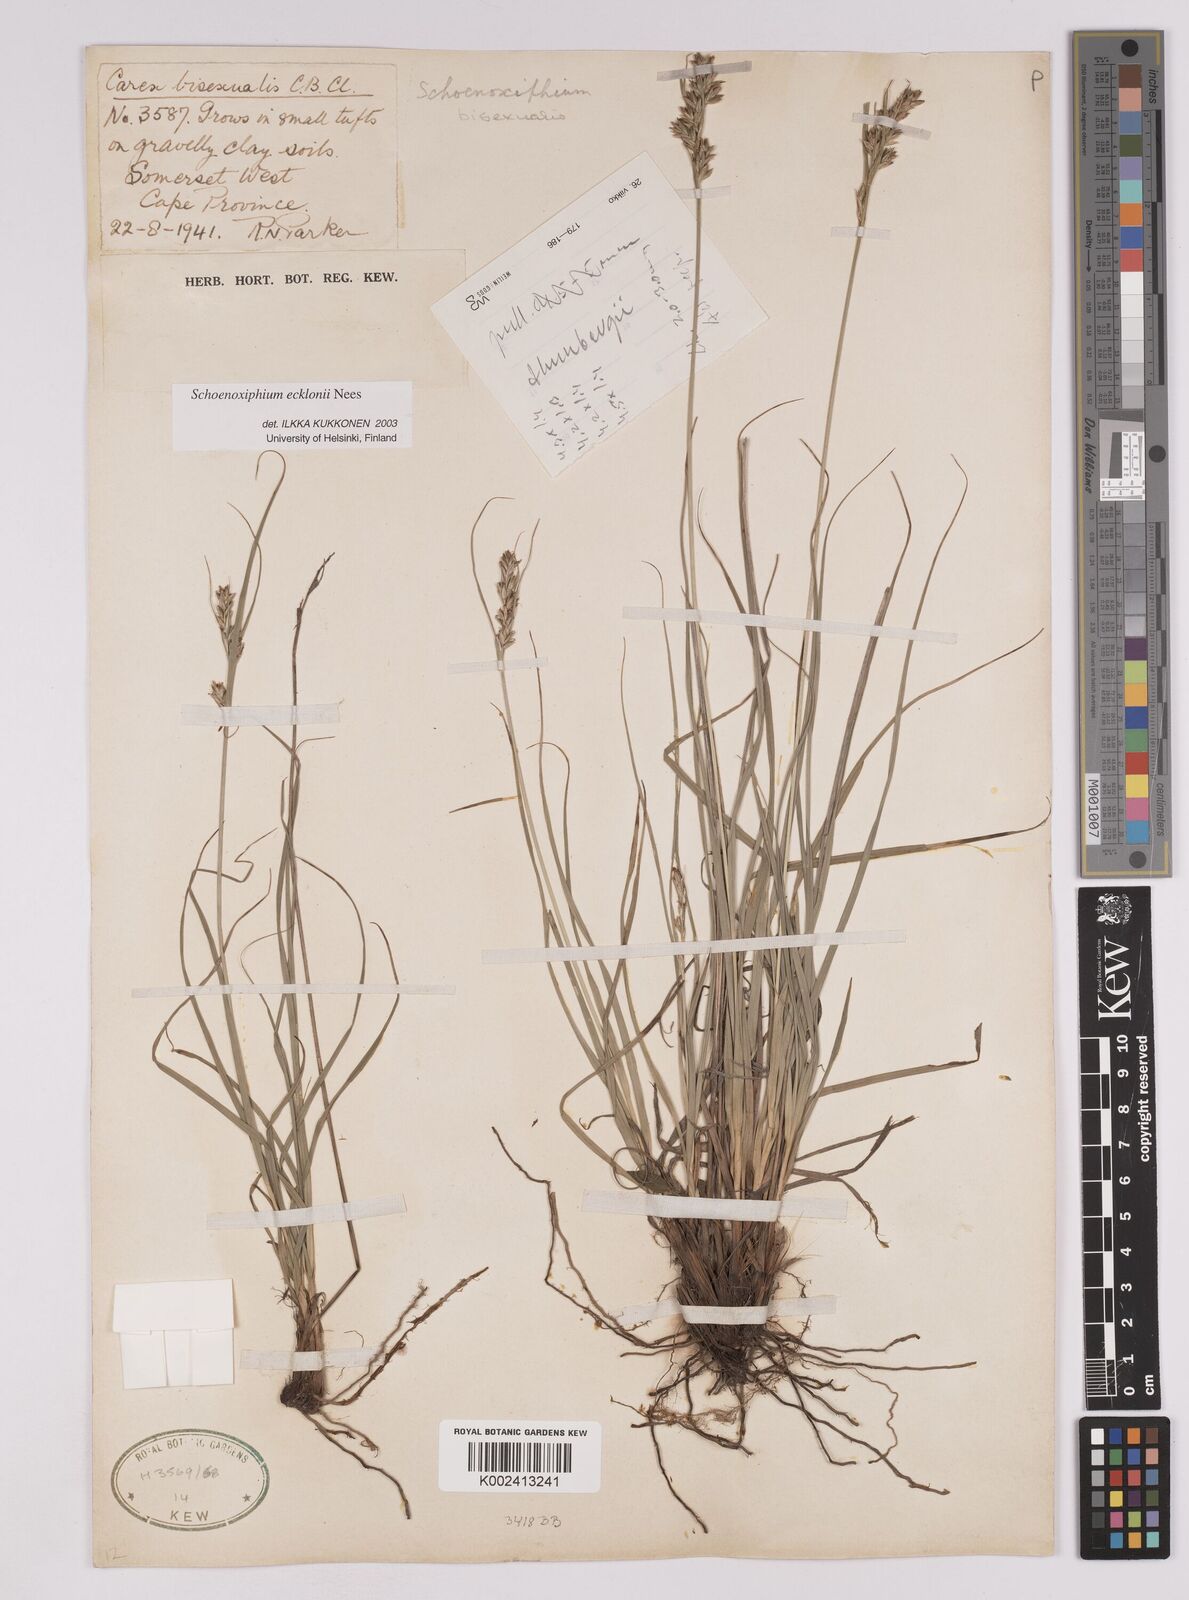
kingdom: Plantae
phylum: Tracheophyta
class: Liliopsida
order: Poales
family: Cyperaceae
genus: Carex
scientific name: Carex capensis
